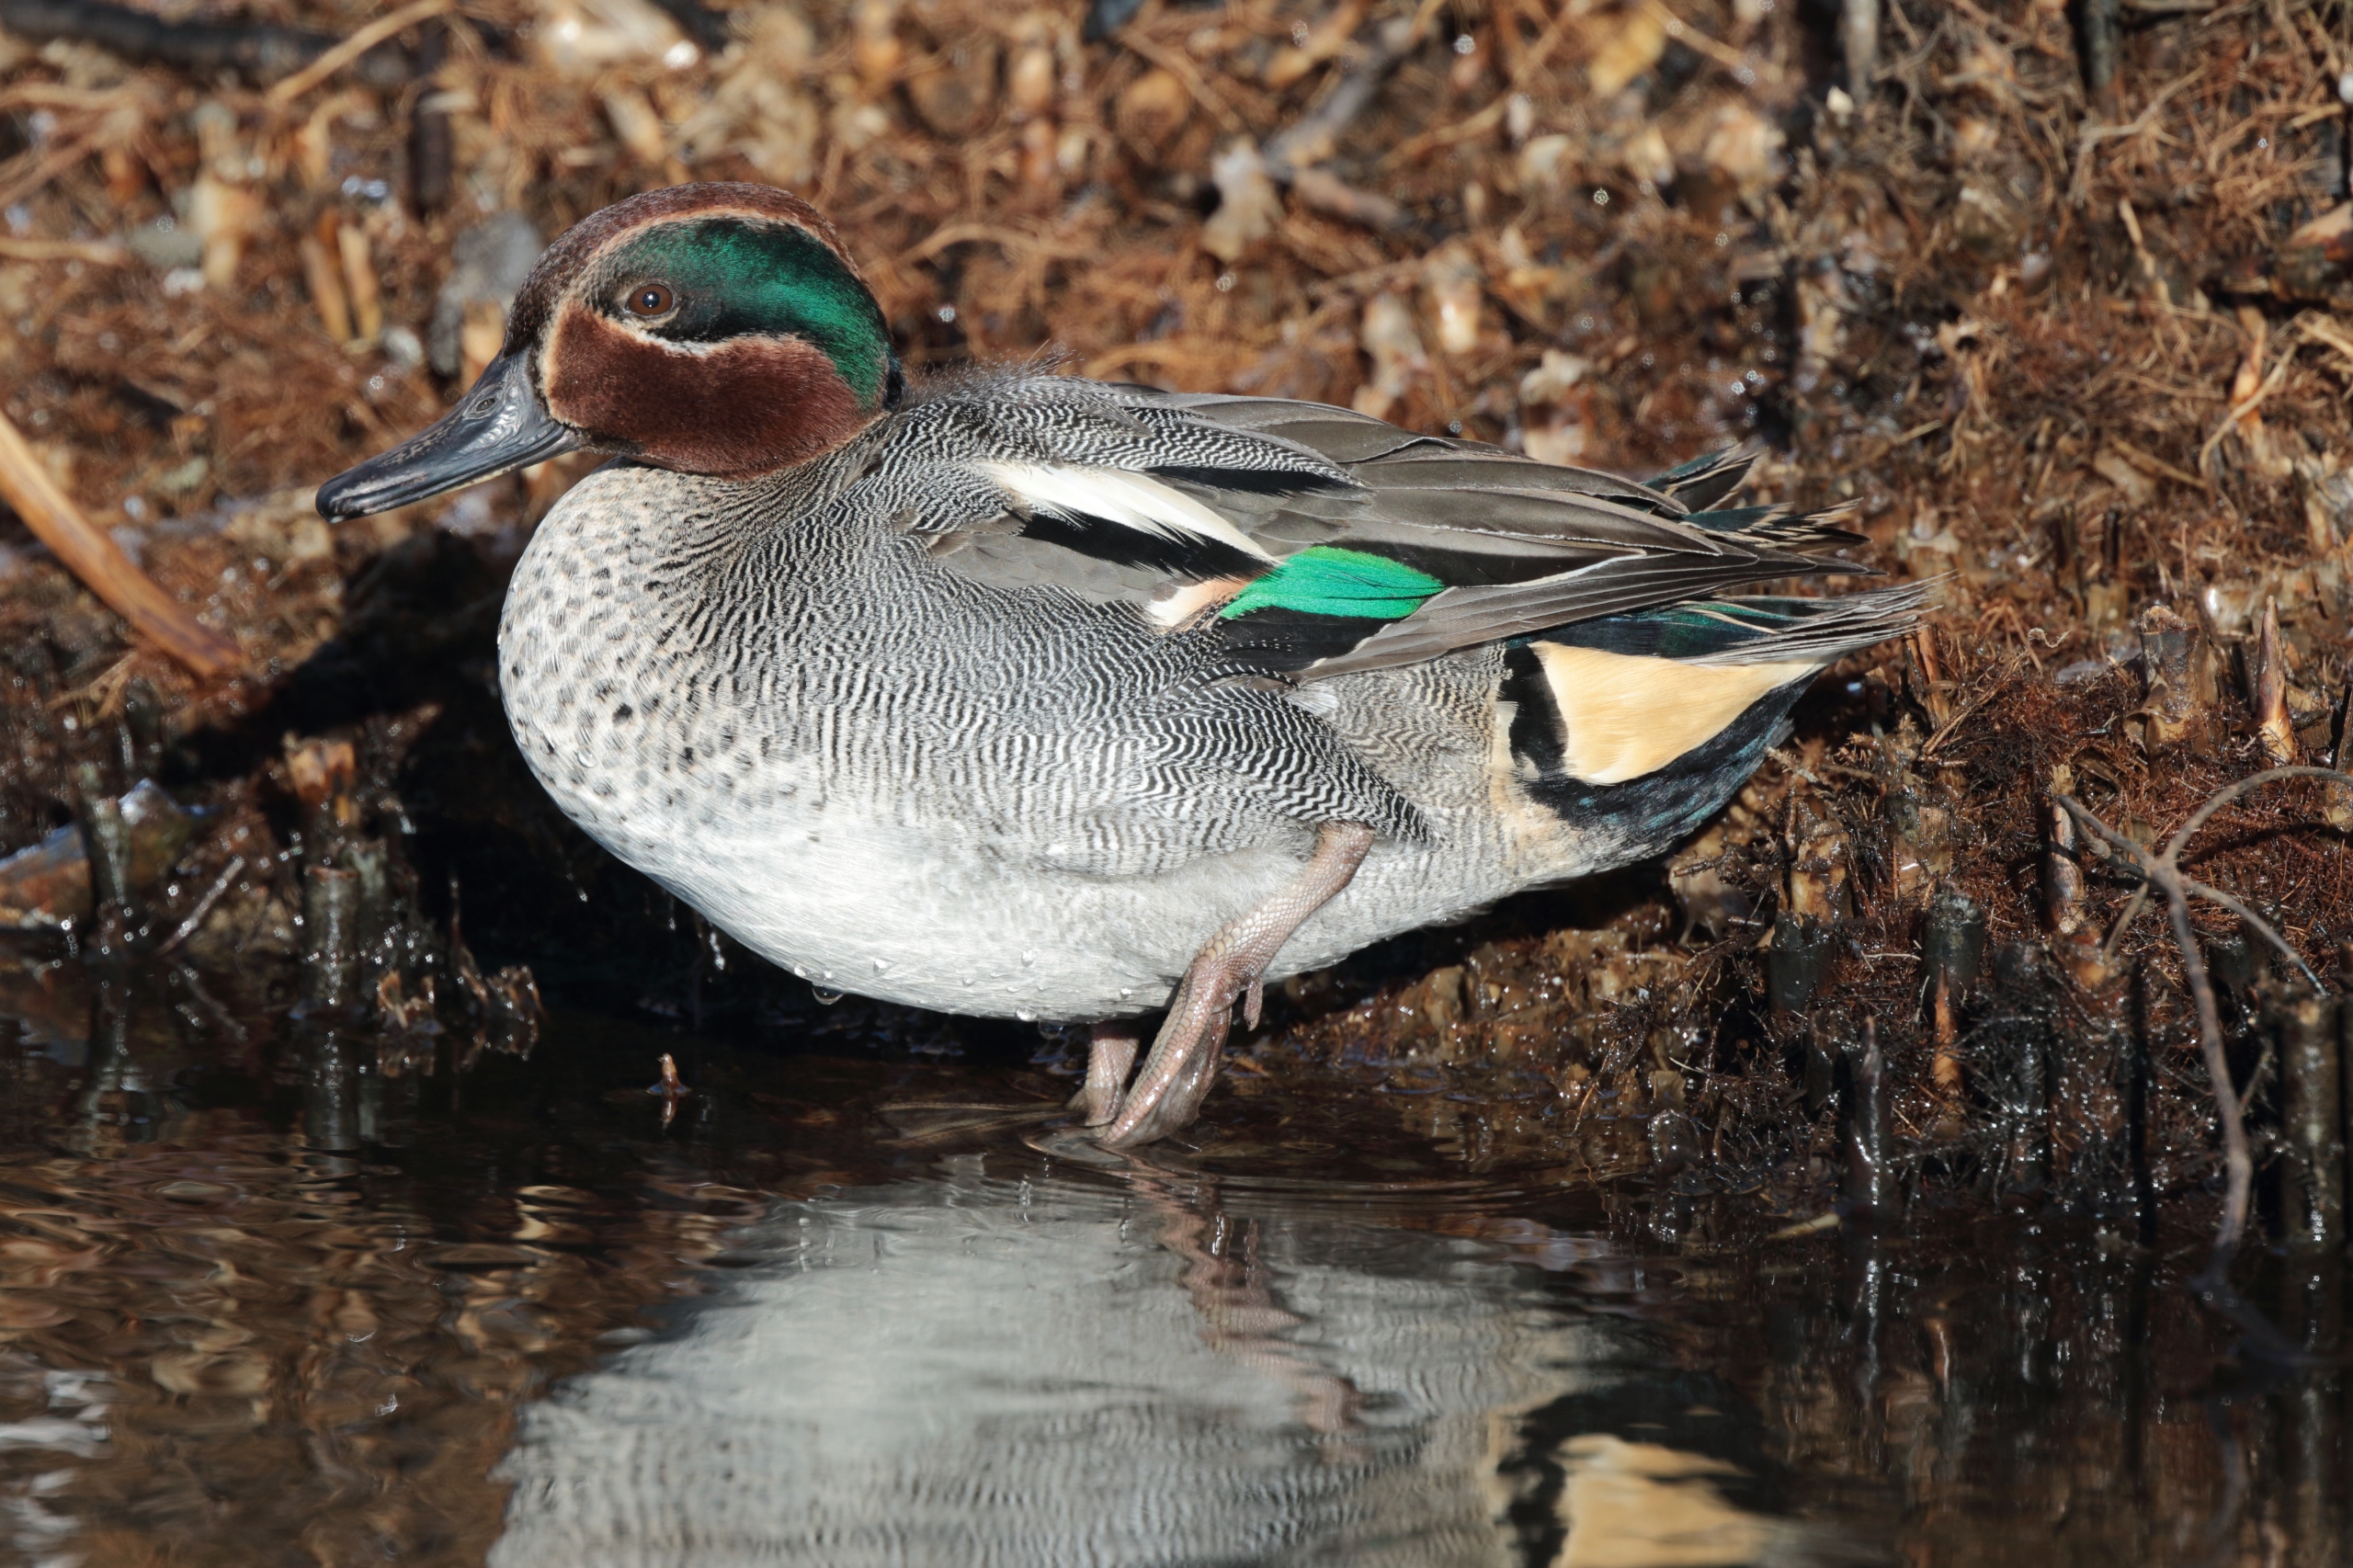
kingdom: Animalia
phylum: Chordata
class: Aves
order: Anseriformes
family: Anatidae
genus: Anas
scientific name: Anas crecca
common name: Krikand
